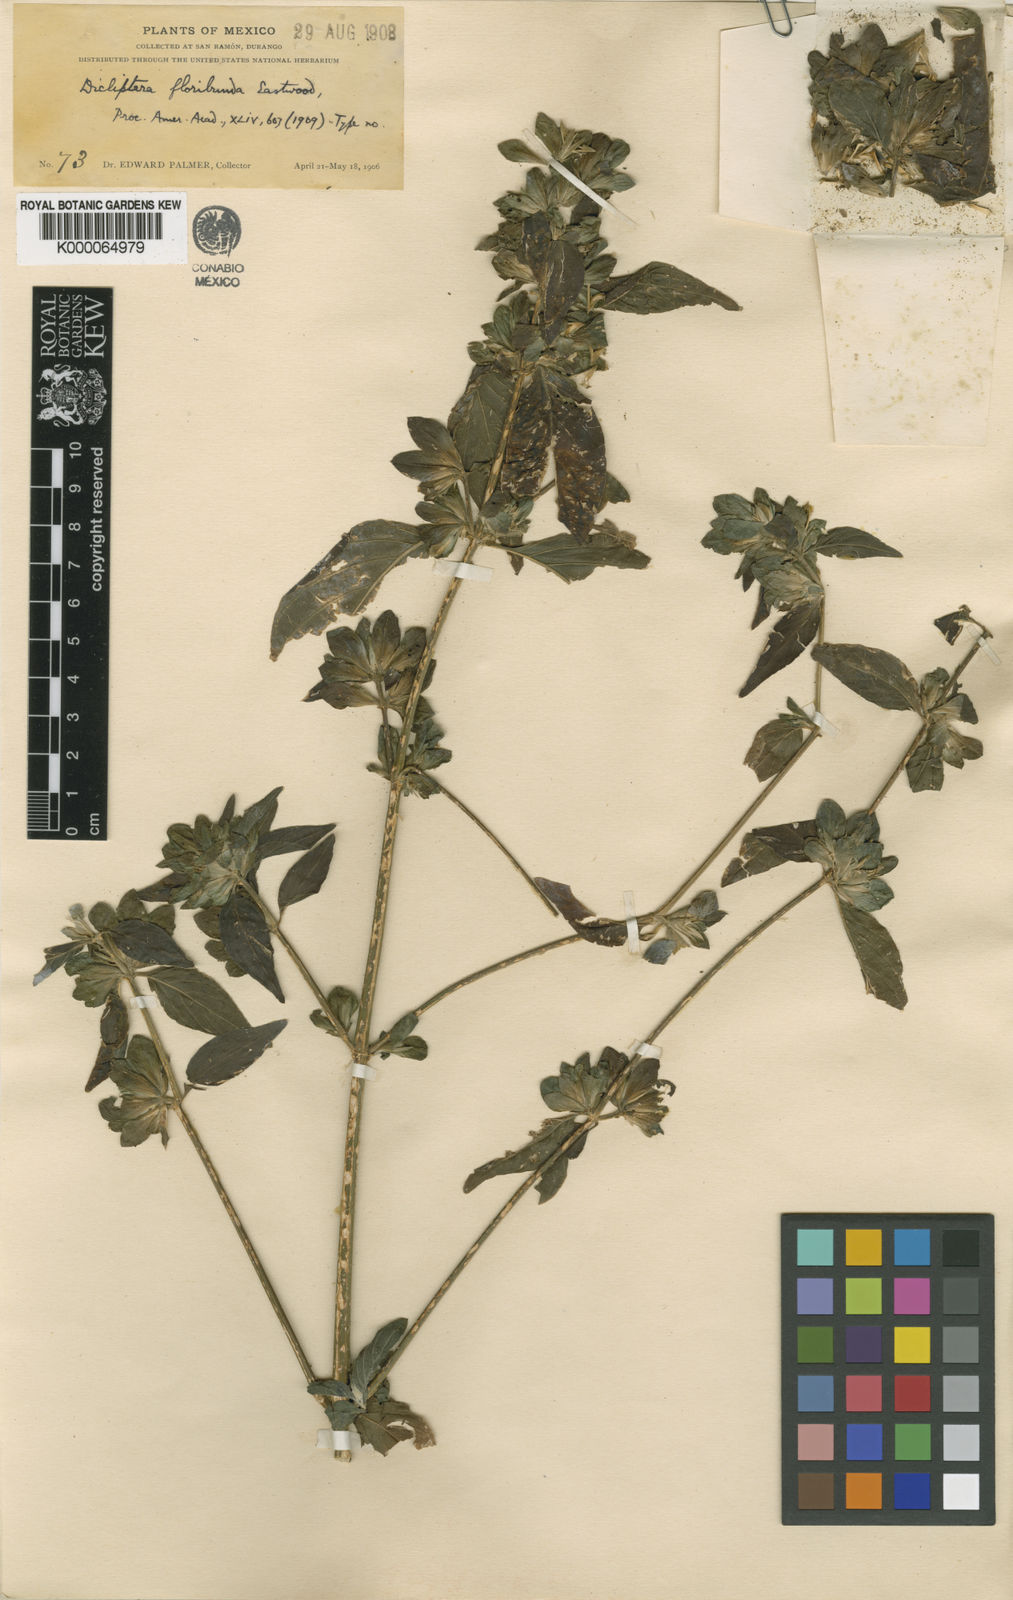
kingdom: Plantae
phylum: Tracheophyta
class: Magnoliopsida
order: Lamiales
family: Acanthaceae
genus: Dicliptera
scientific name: Dicliptera floribunda
